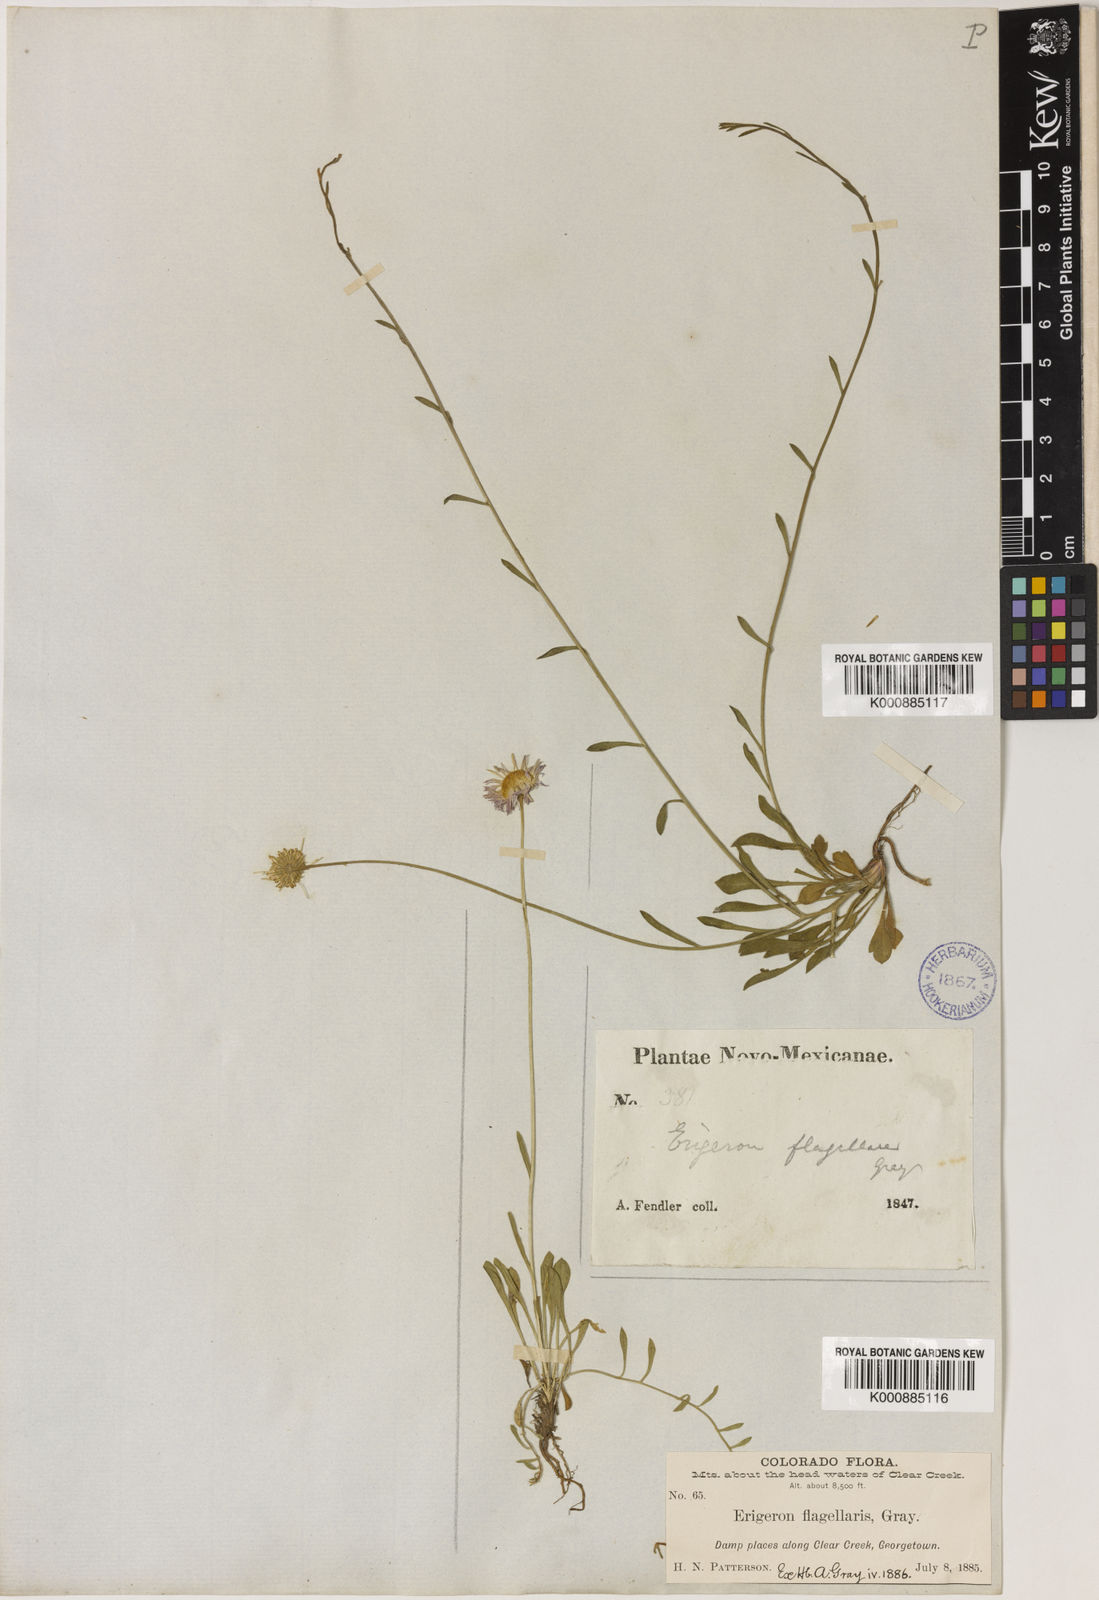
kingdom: Plantae
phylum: Tracheophyta
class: Magnoliopsida
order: Asterales
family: Asteraceae
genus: Erigeron
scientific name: Erigeron
